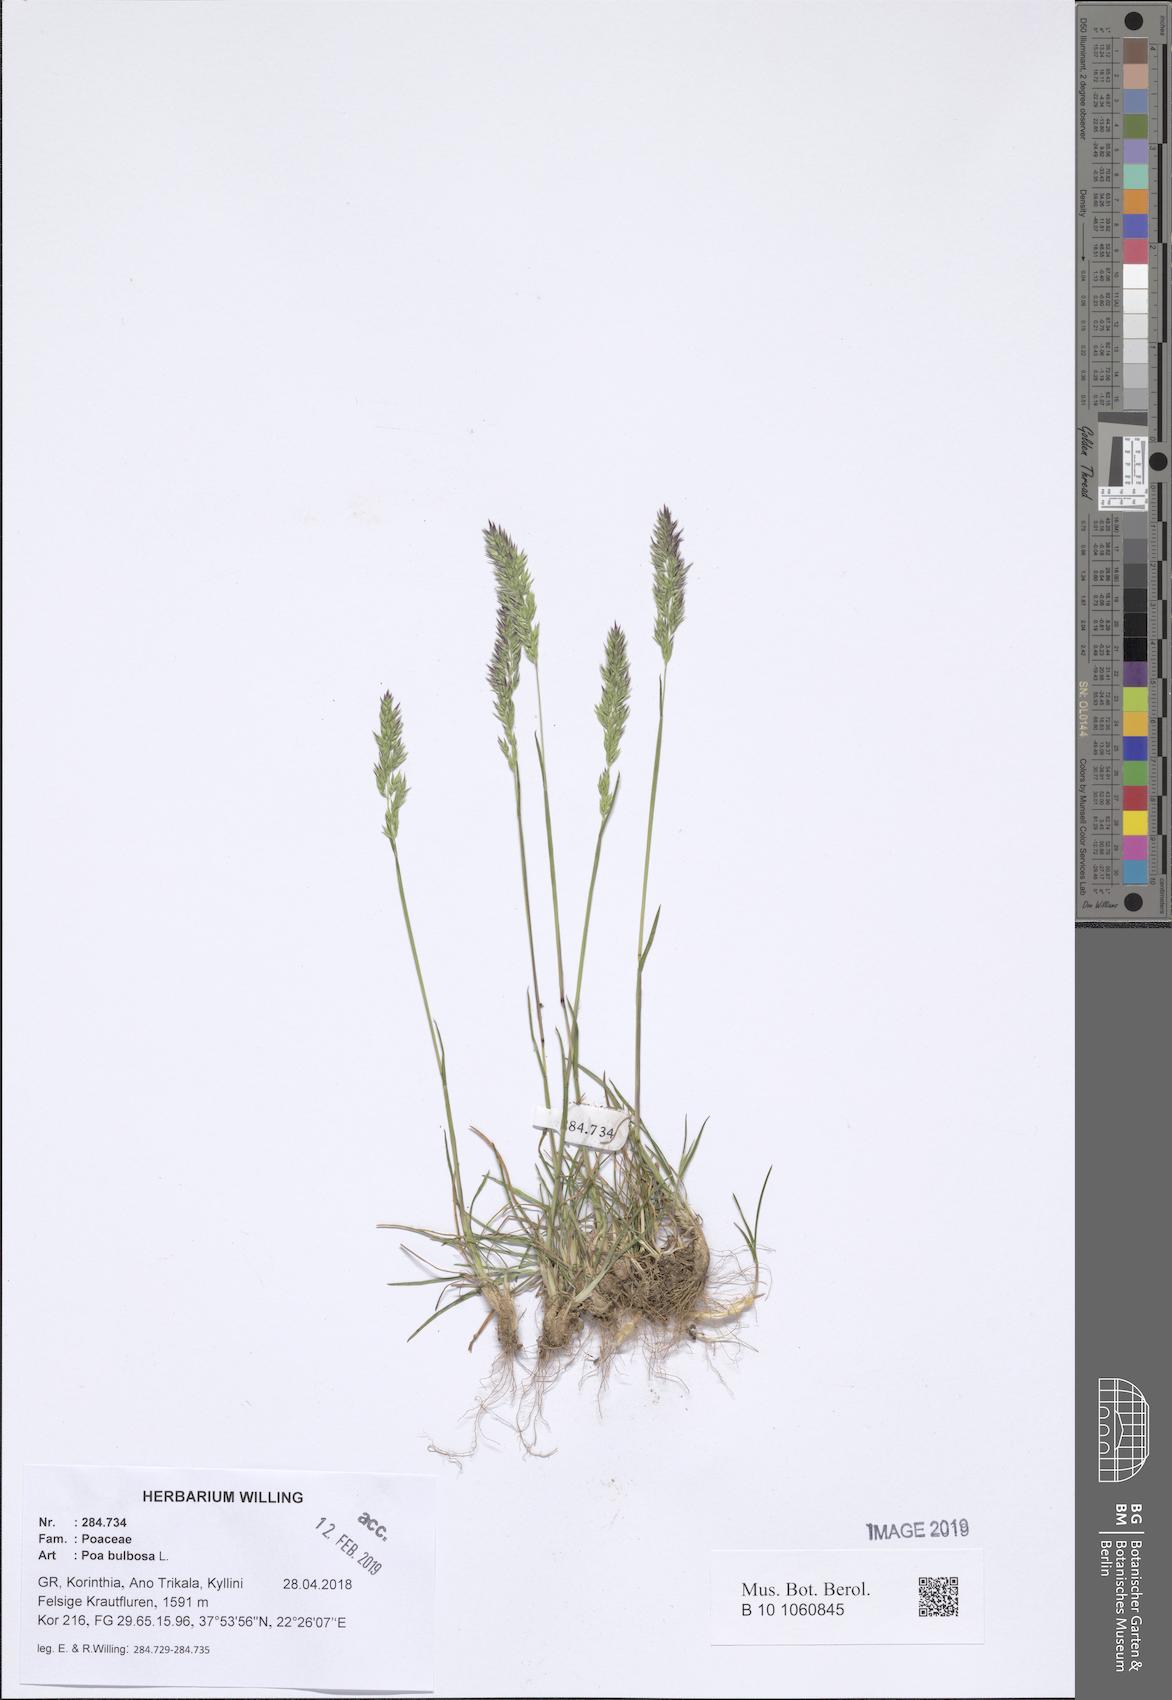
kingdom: Plantae
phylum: Tracheophyta
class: Liliopsida
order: Poales
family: Poaceae
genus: Poa
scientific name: Poa bulbosa
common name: Bulbous bluegrass
